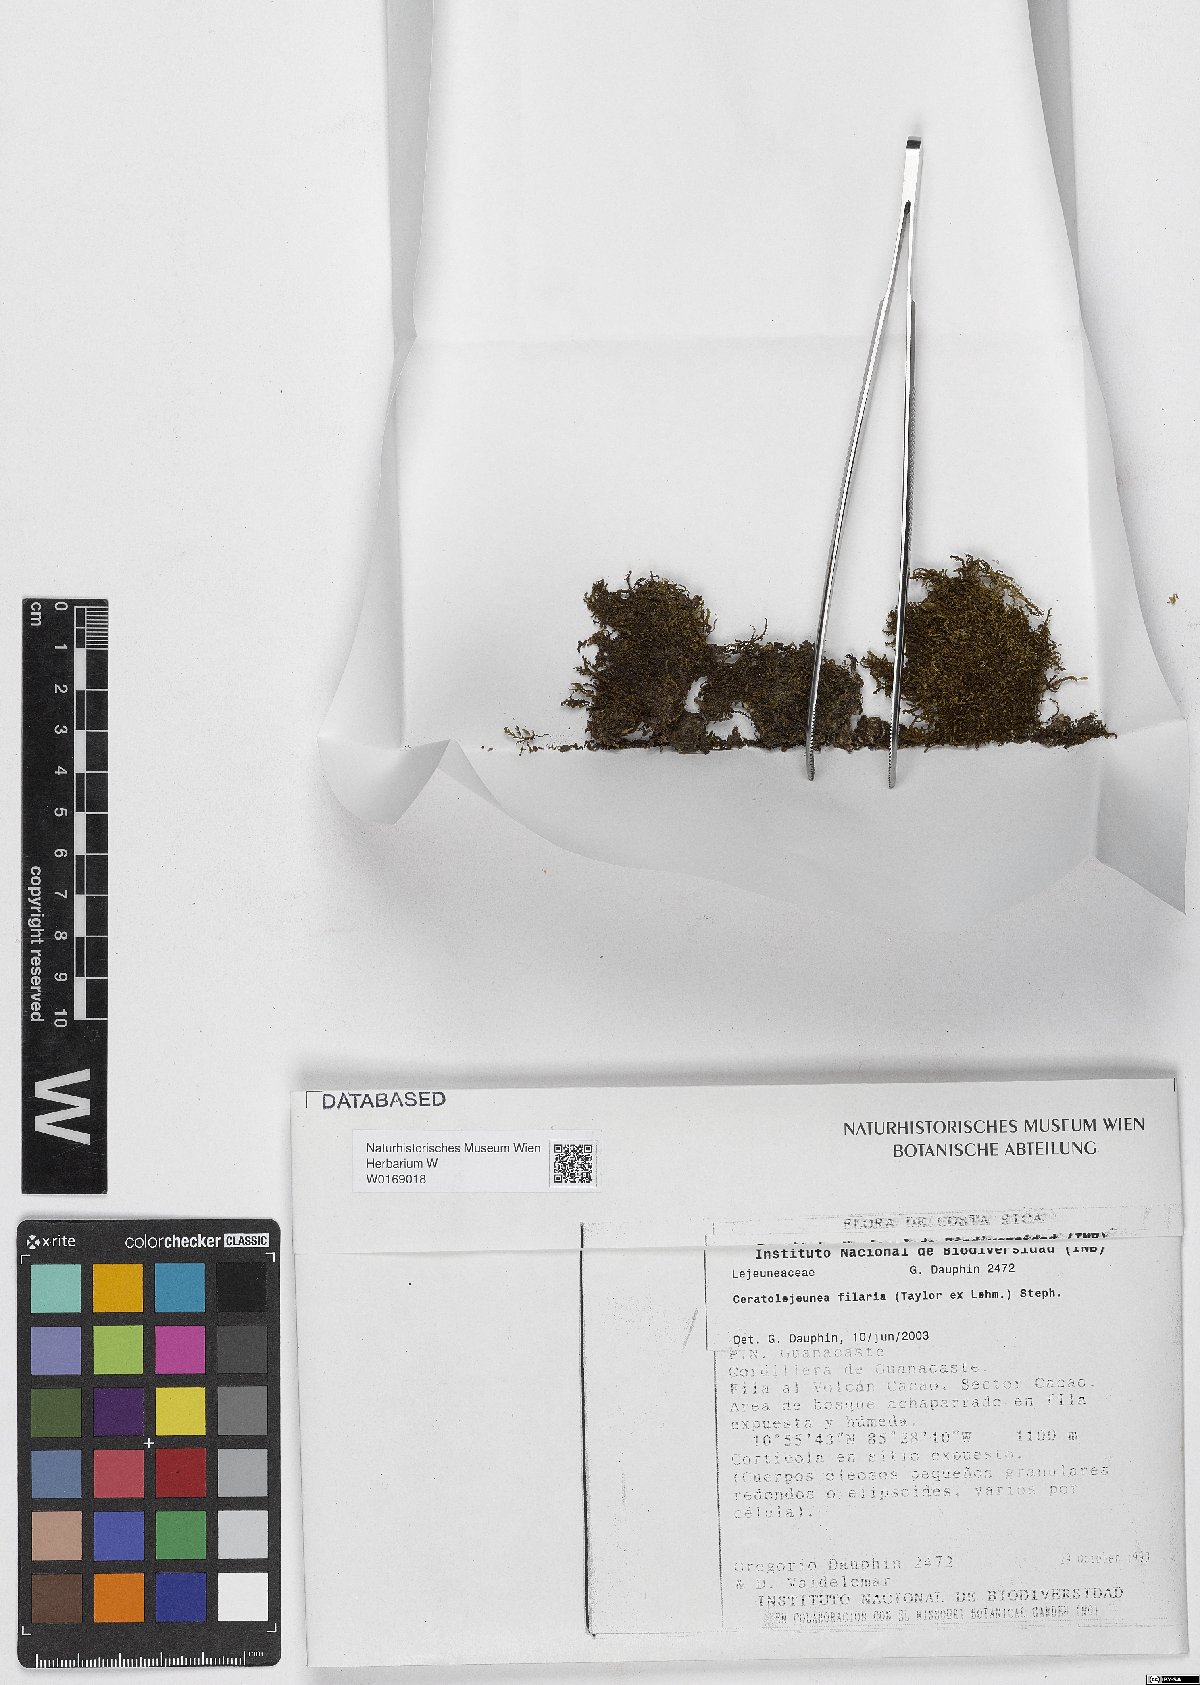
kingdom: Plantae
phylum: Marchantiophyta
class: Jungermanniopsida
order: Porellales
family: Lejeuneaceae
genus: Ceratolejeunea
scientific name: Ceratolejeunea filaria
